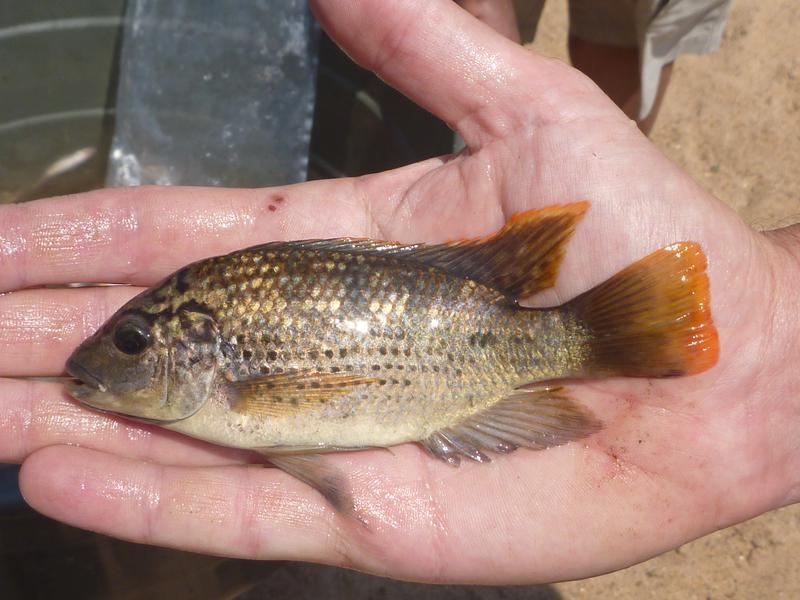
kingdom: Animalia
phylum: Chordata
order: Perciformes
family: Cichlidae
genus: Oreochromis
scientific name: Oreochromis shiranus
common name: Chilwa tilapia
